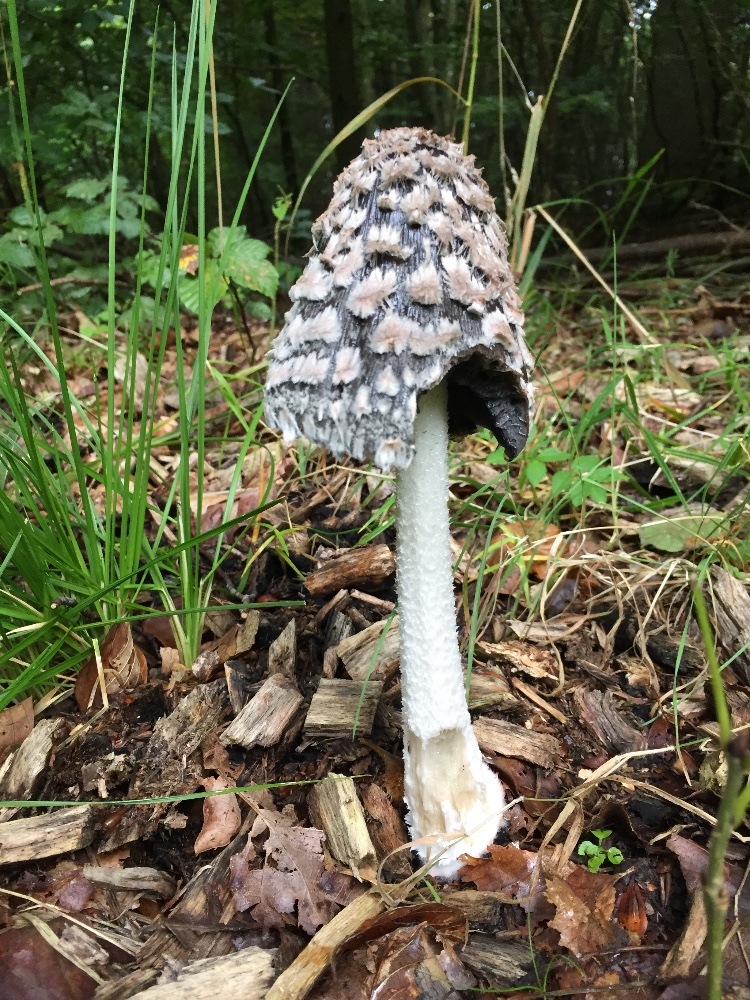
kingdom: Fungi
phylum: Basidiomycota
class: Agaricomycetes
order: Agaricales
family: Psathyrellaceae
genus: Coprinopsis
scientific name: Coprinopsis picacea
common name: skade-blækhat
